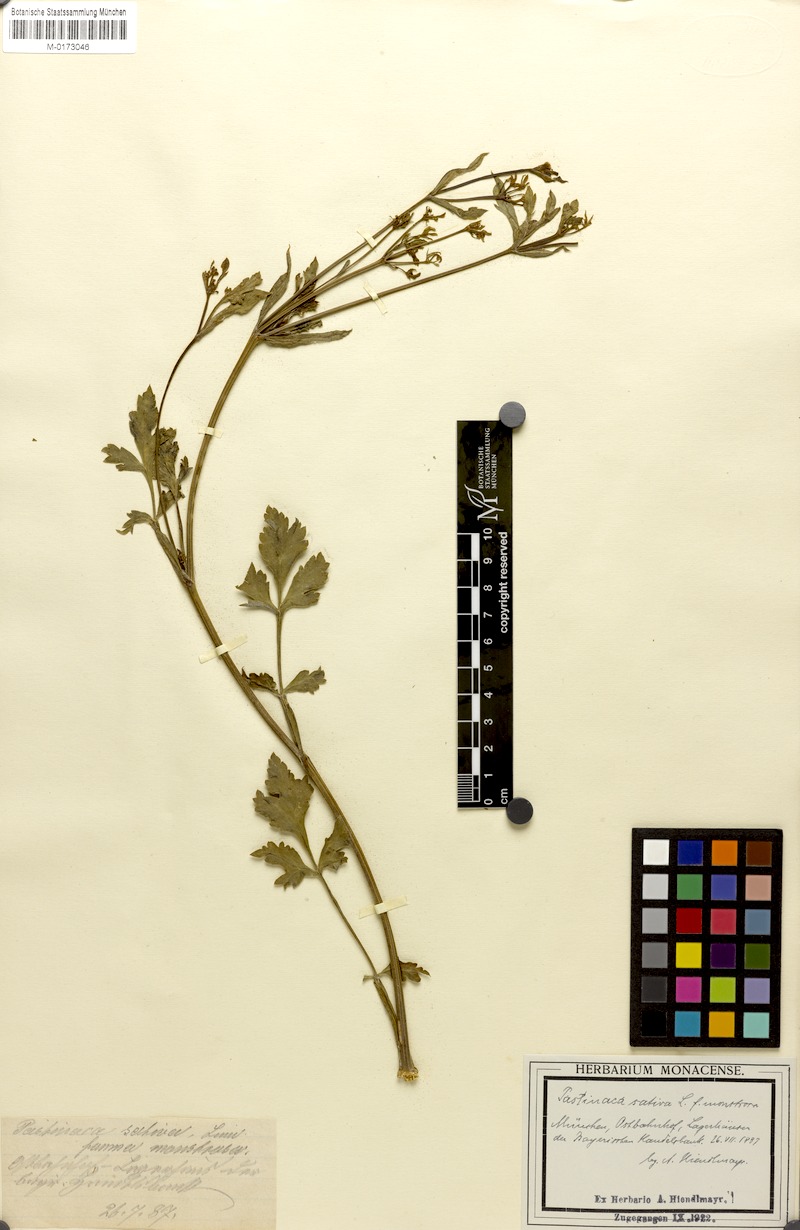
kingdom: Plantae
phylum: Tracheophyta
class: Magnoliopsida
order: Apiales
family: Apiaceae
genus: Pastinaca
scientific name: Pastinaca sativa
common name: Wild parsnip
